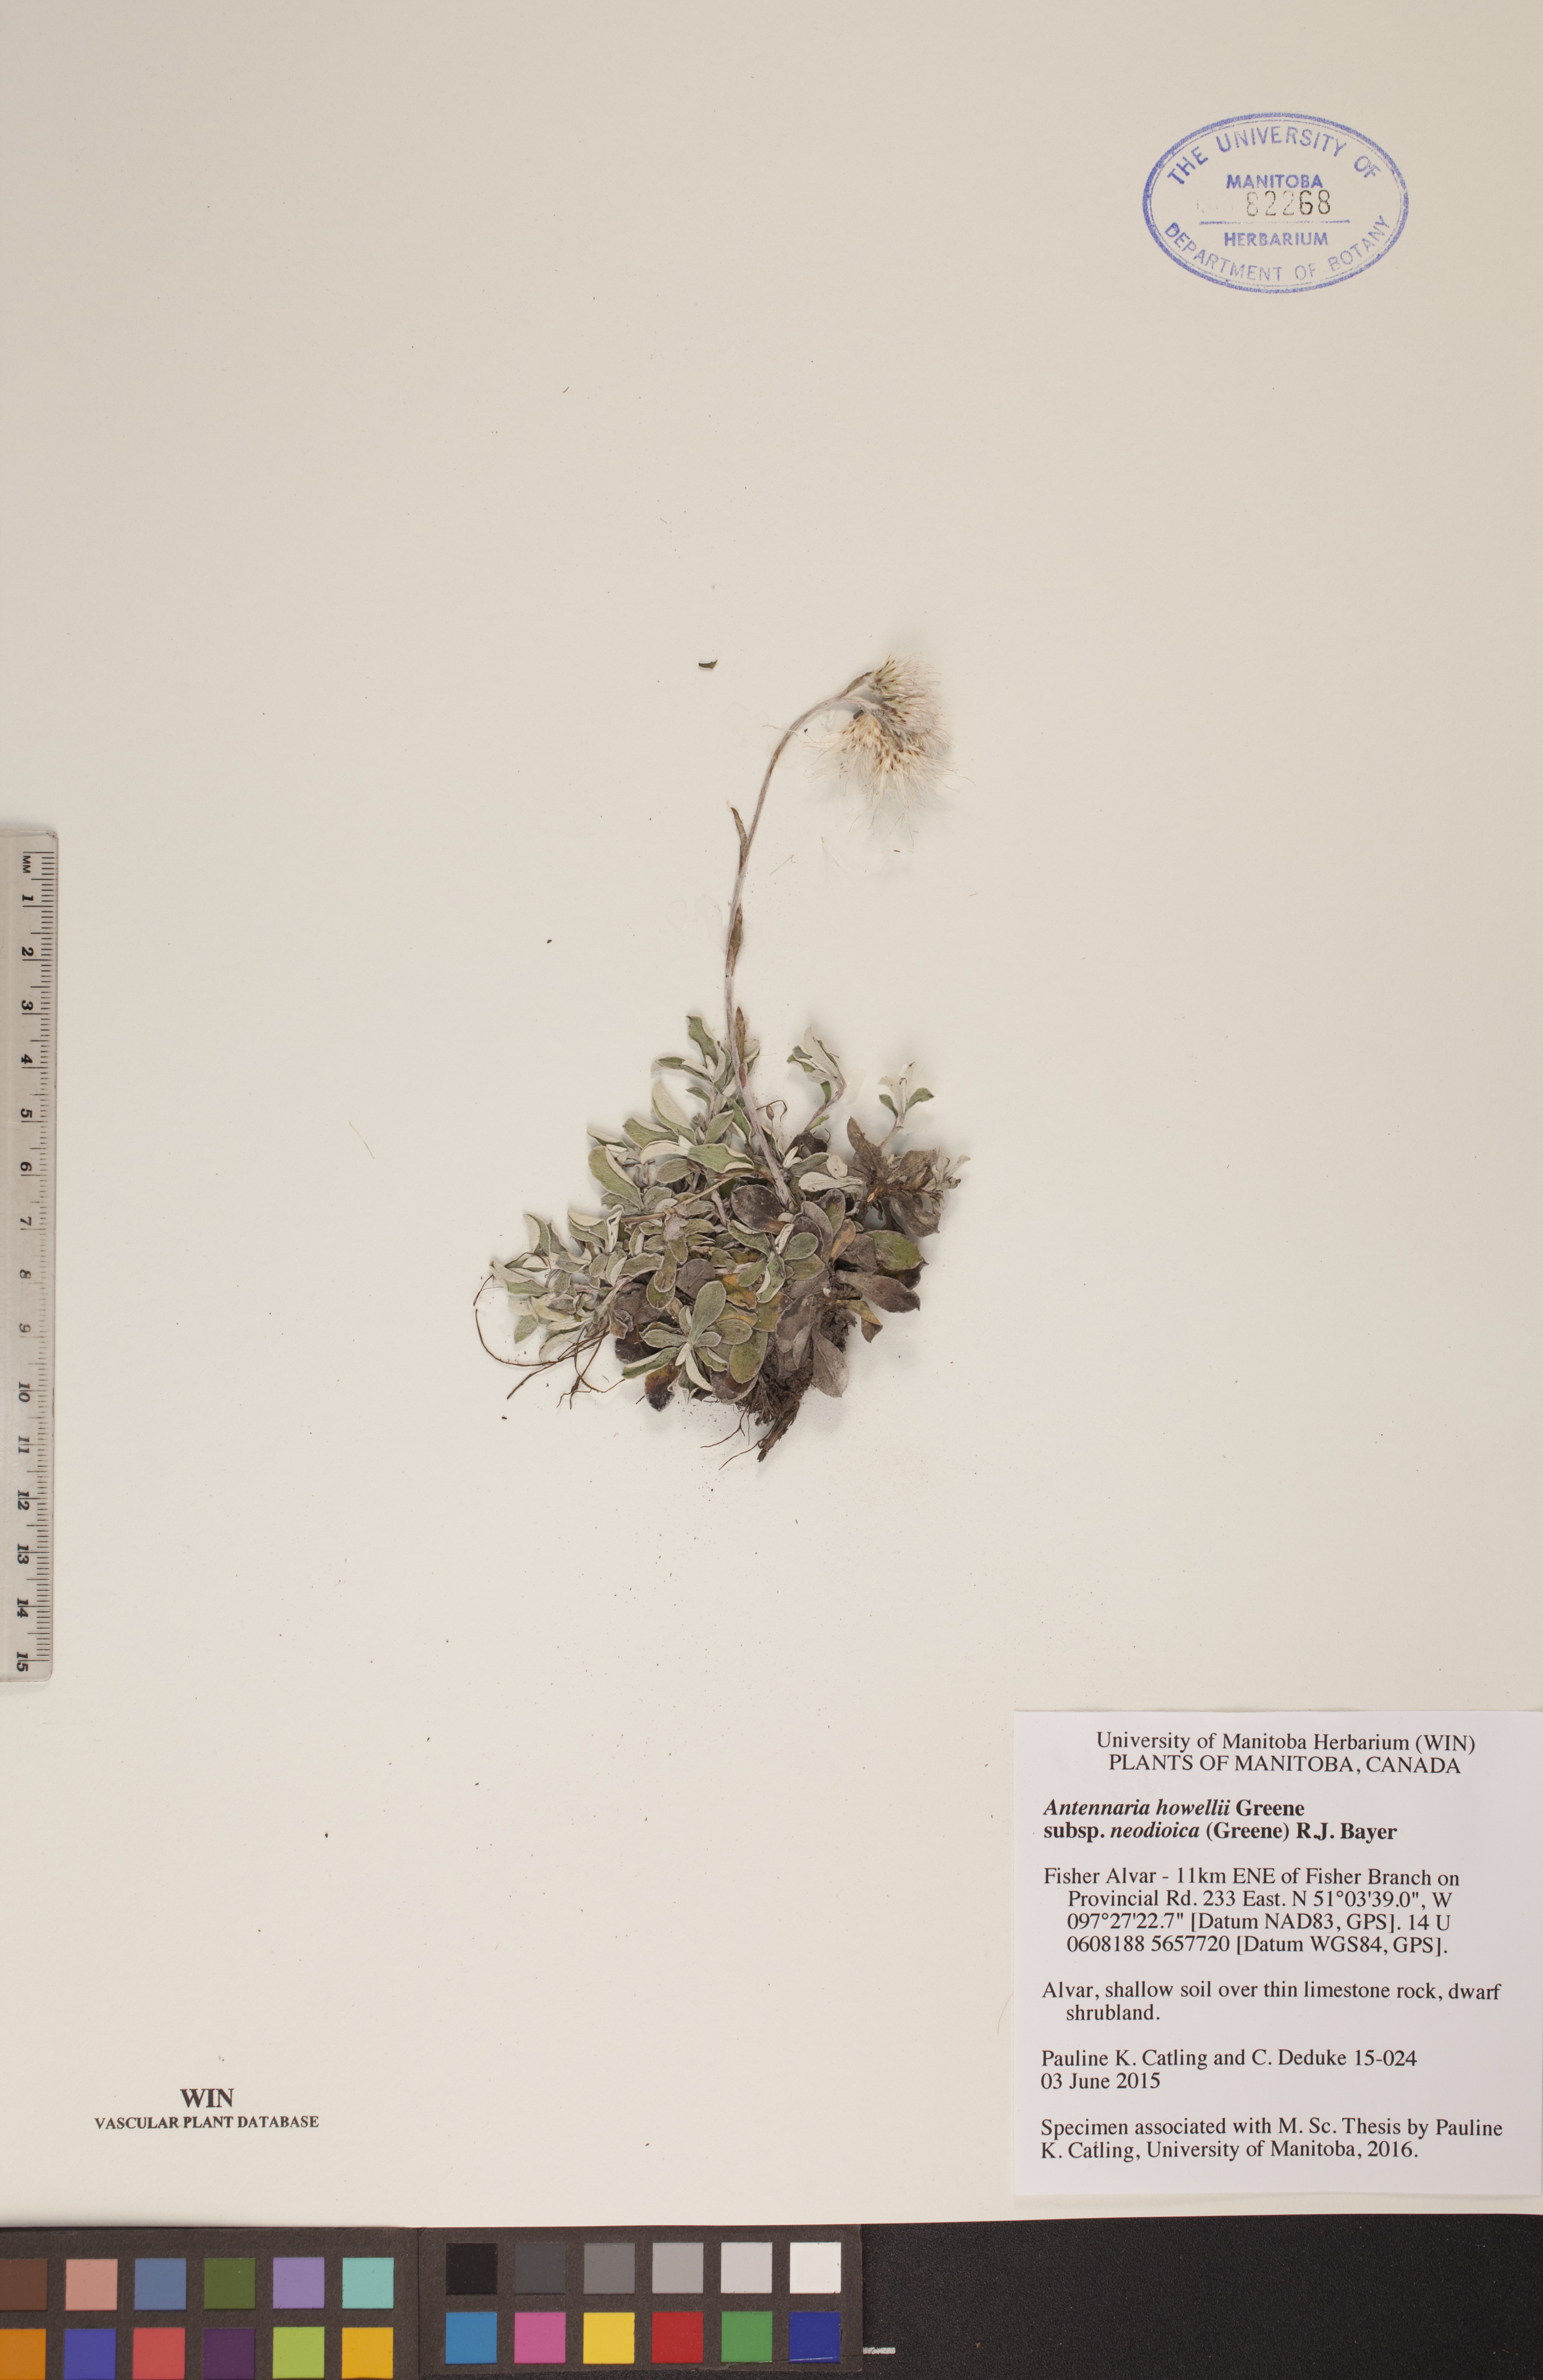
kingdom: Plantae
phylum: Tracheophyta
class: Magnoliopsida
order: Asterales
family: Asteraceae
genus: Antennaria
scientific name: Antennaria howellii
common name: Howell's pussytoes
